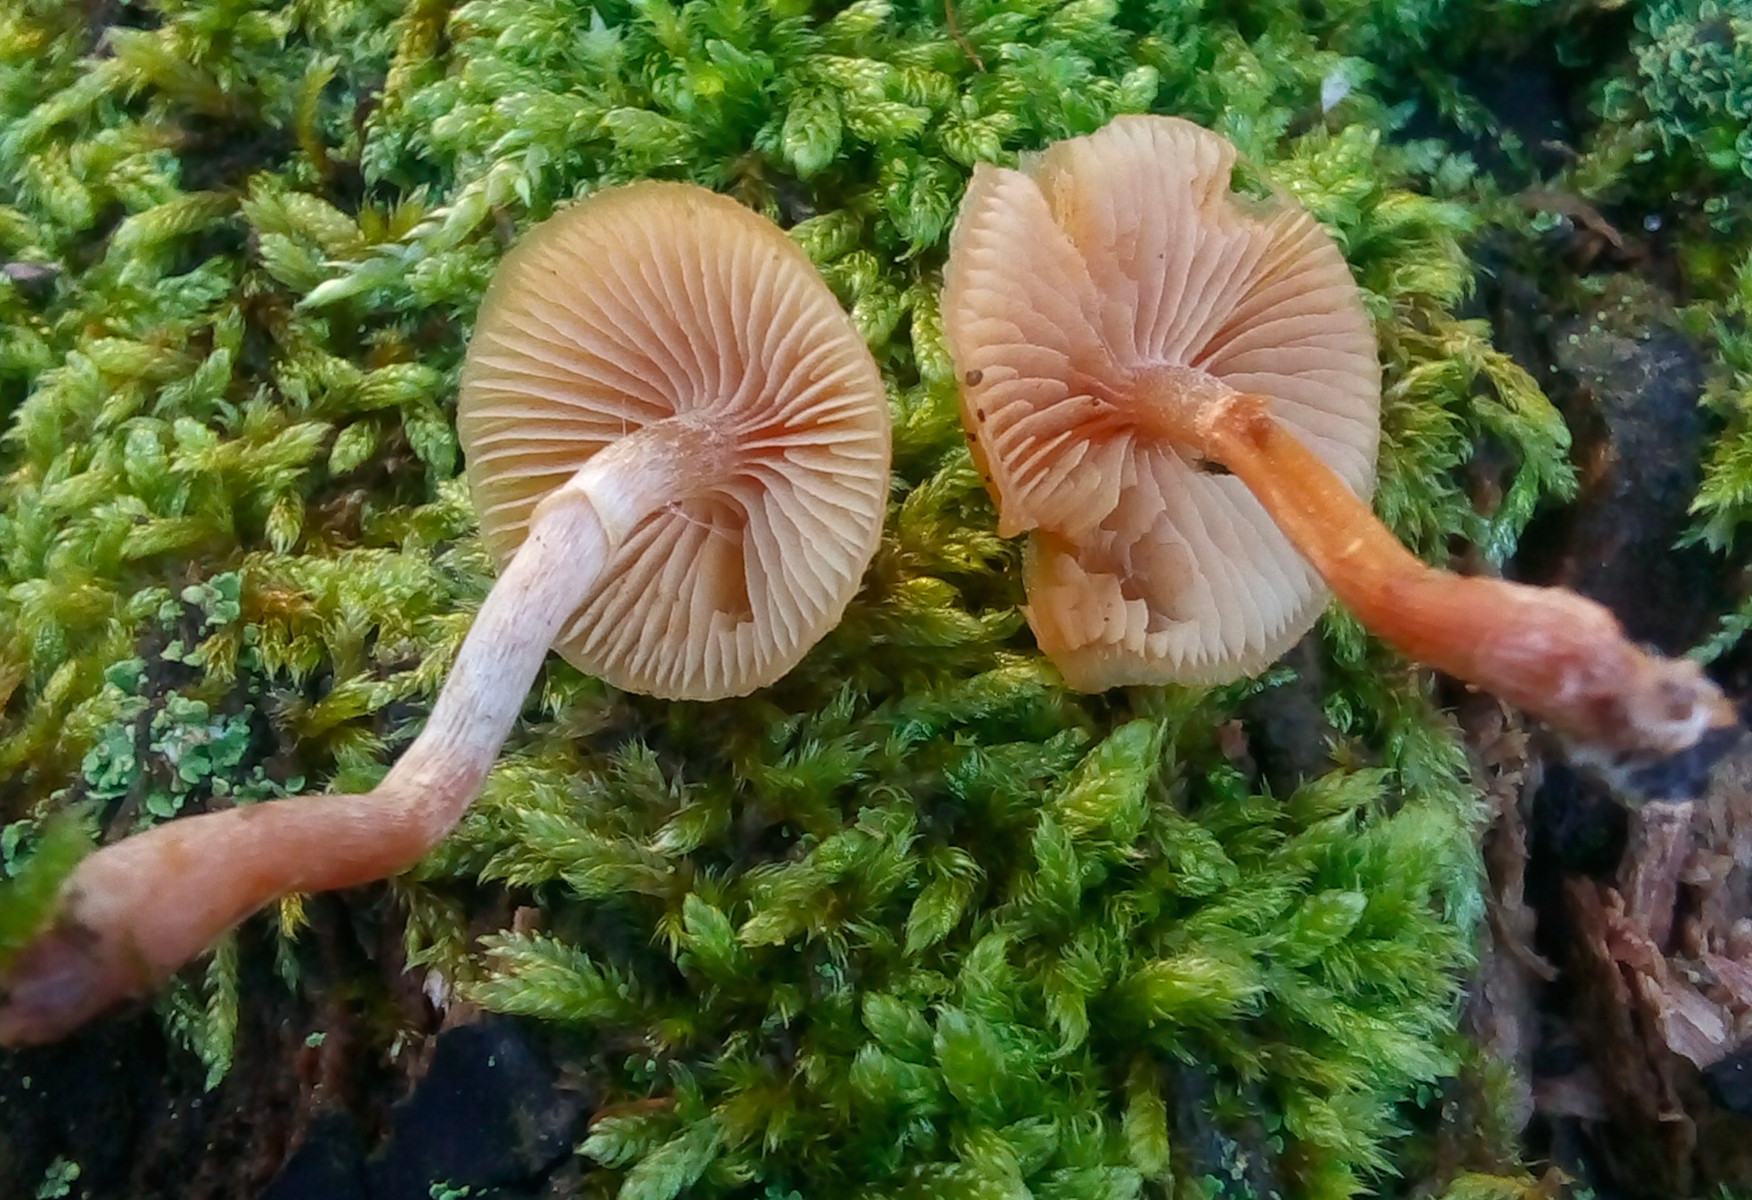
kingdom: Fungi
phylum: Basidiomycota
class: Agaricomycetes
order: Agaricales
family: Hymenogastraceae
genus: Galerina
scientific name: Galerina marginata
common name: randbæltet hjelmhat
